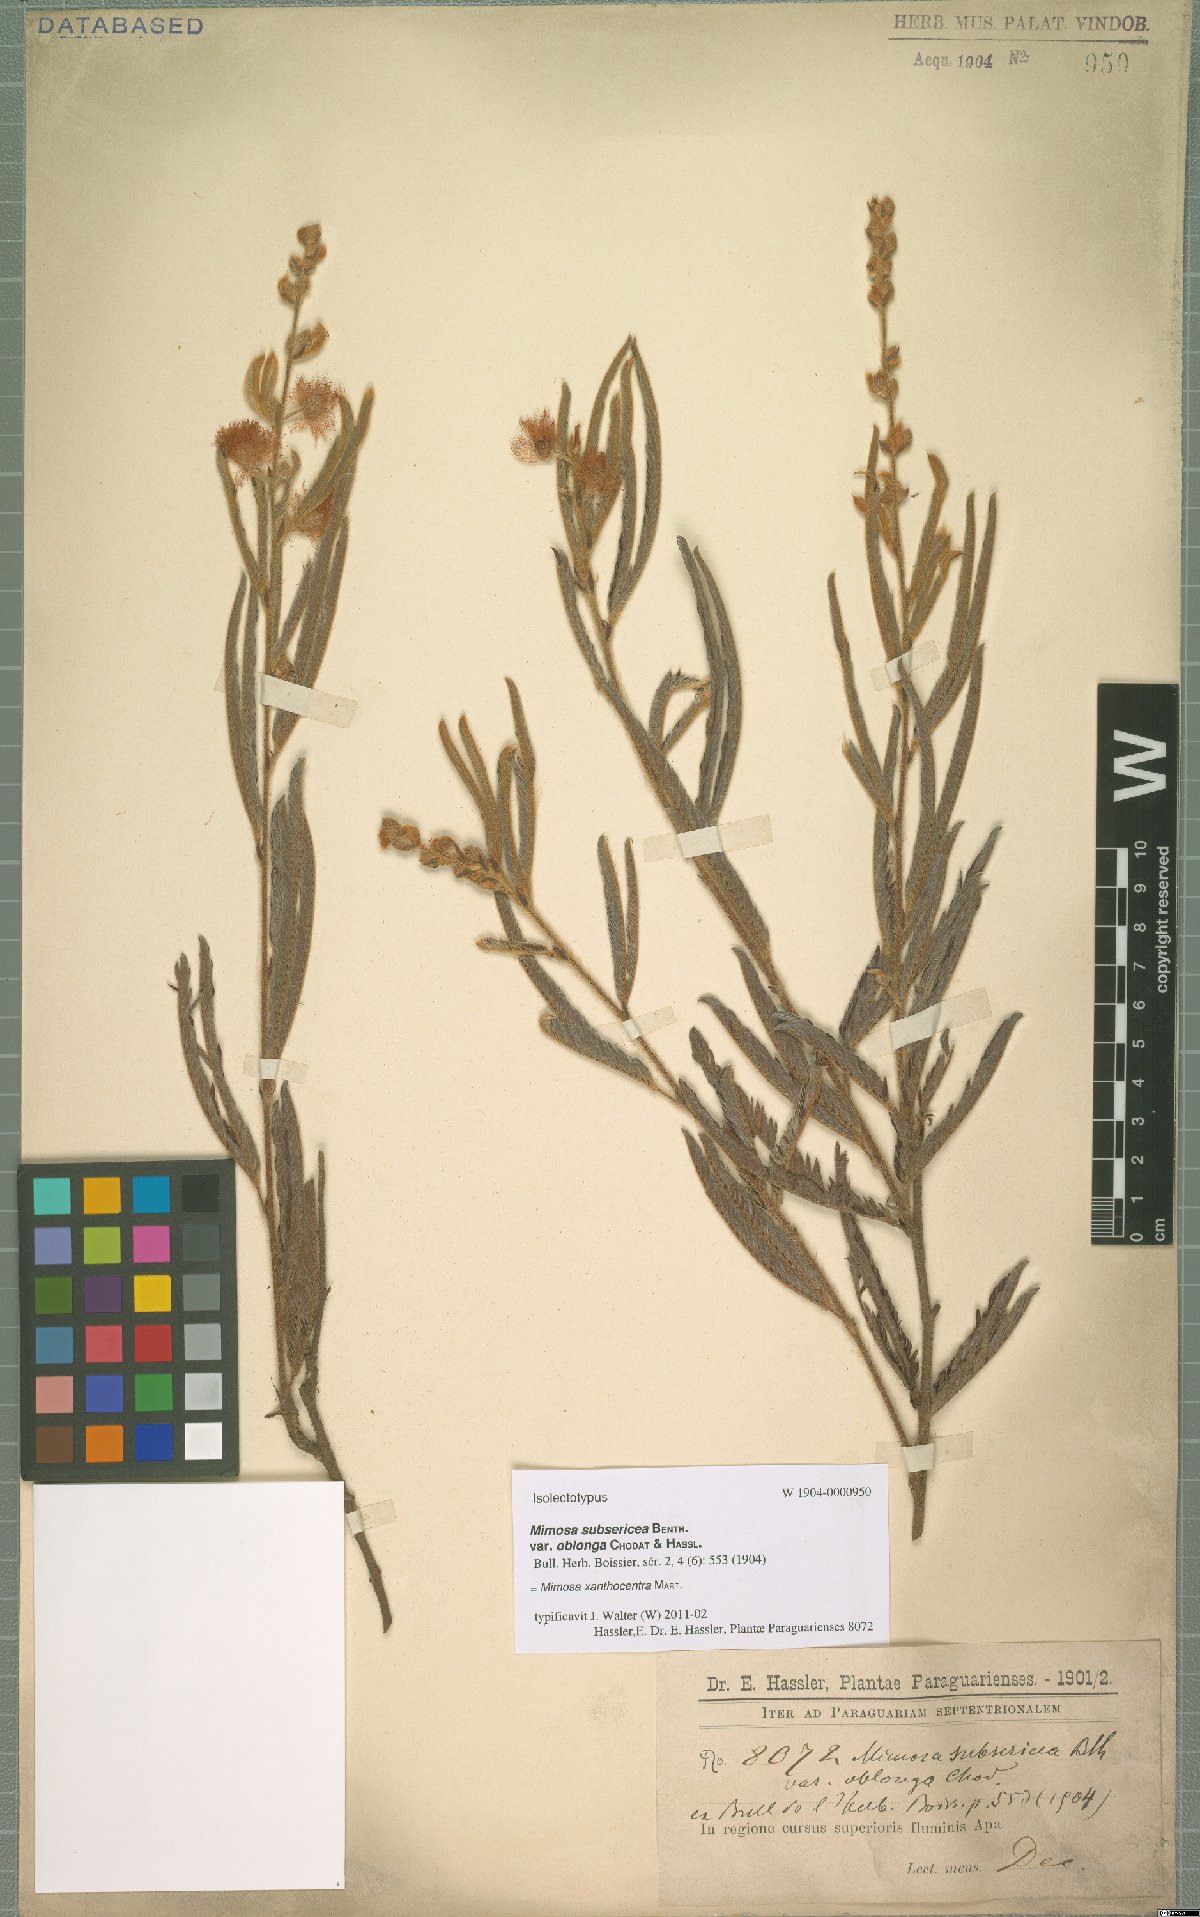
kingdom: Plantae
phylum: Tracheophyta
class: Magnoliopsida
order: Fabales
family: Fabaceae
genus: Mimosa
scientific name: Mimosa xanthocentra
